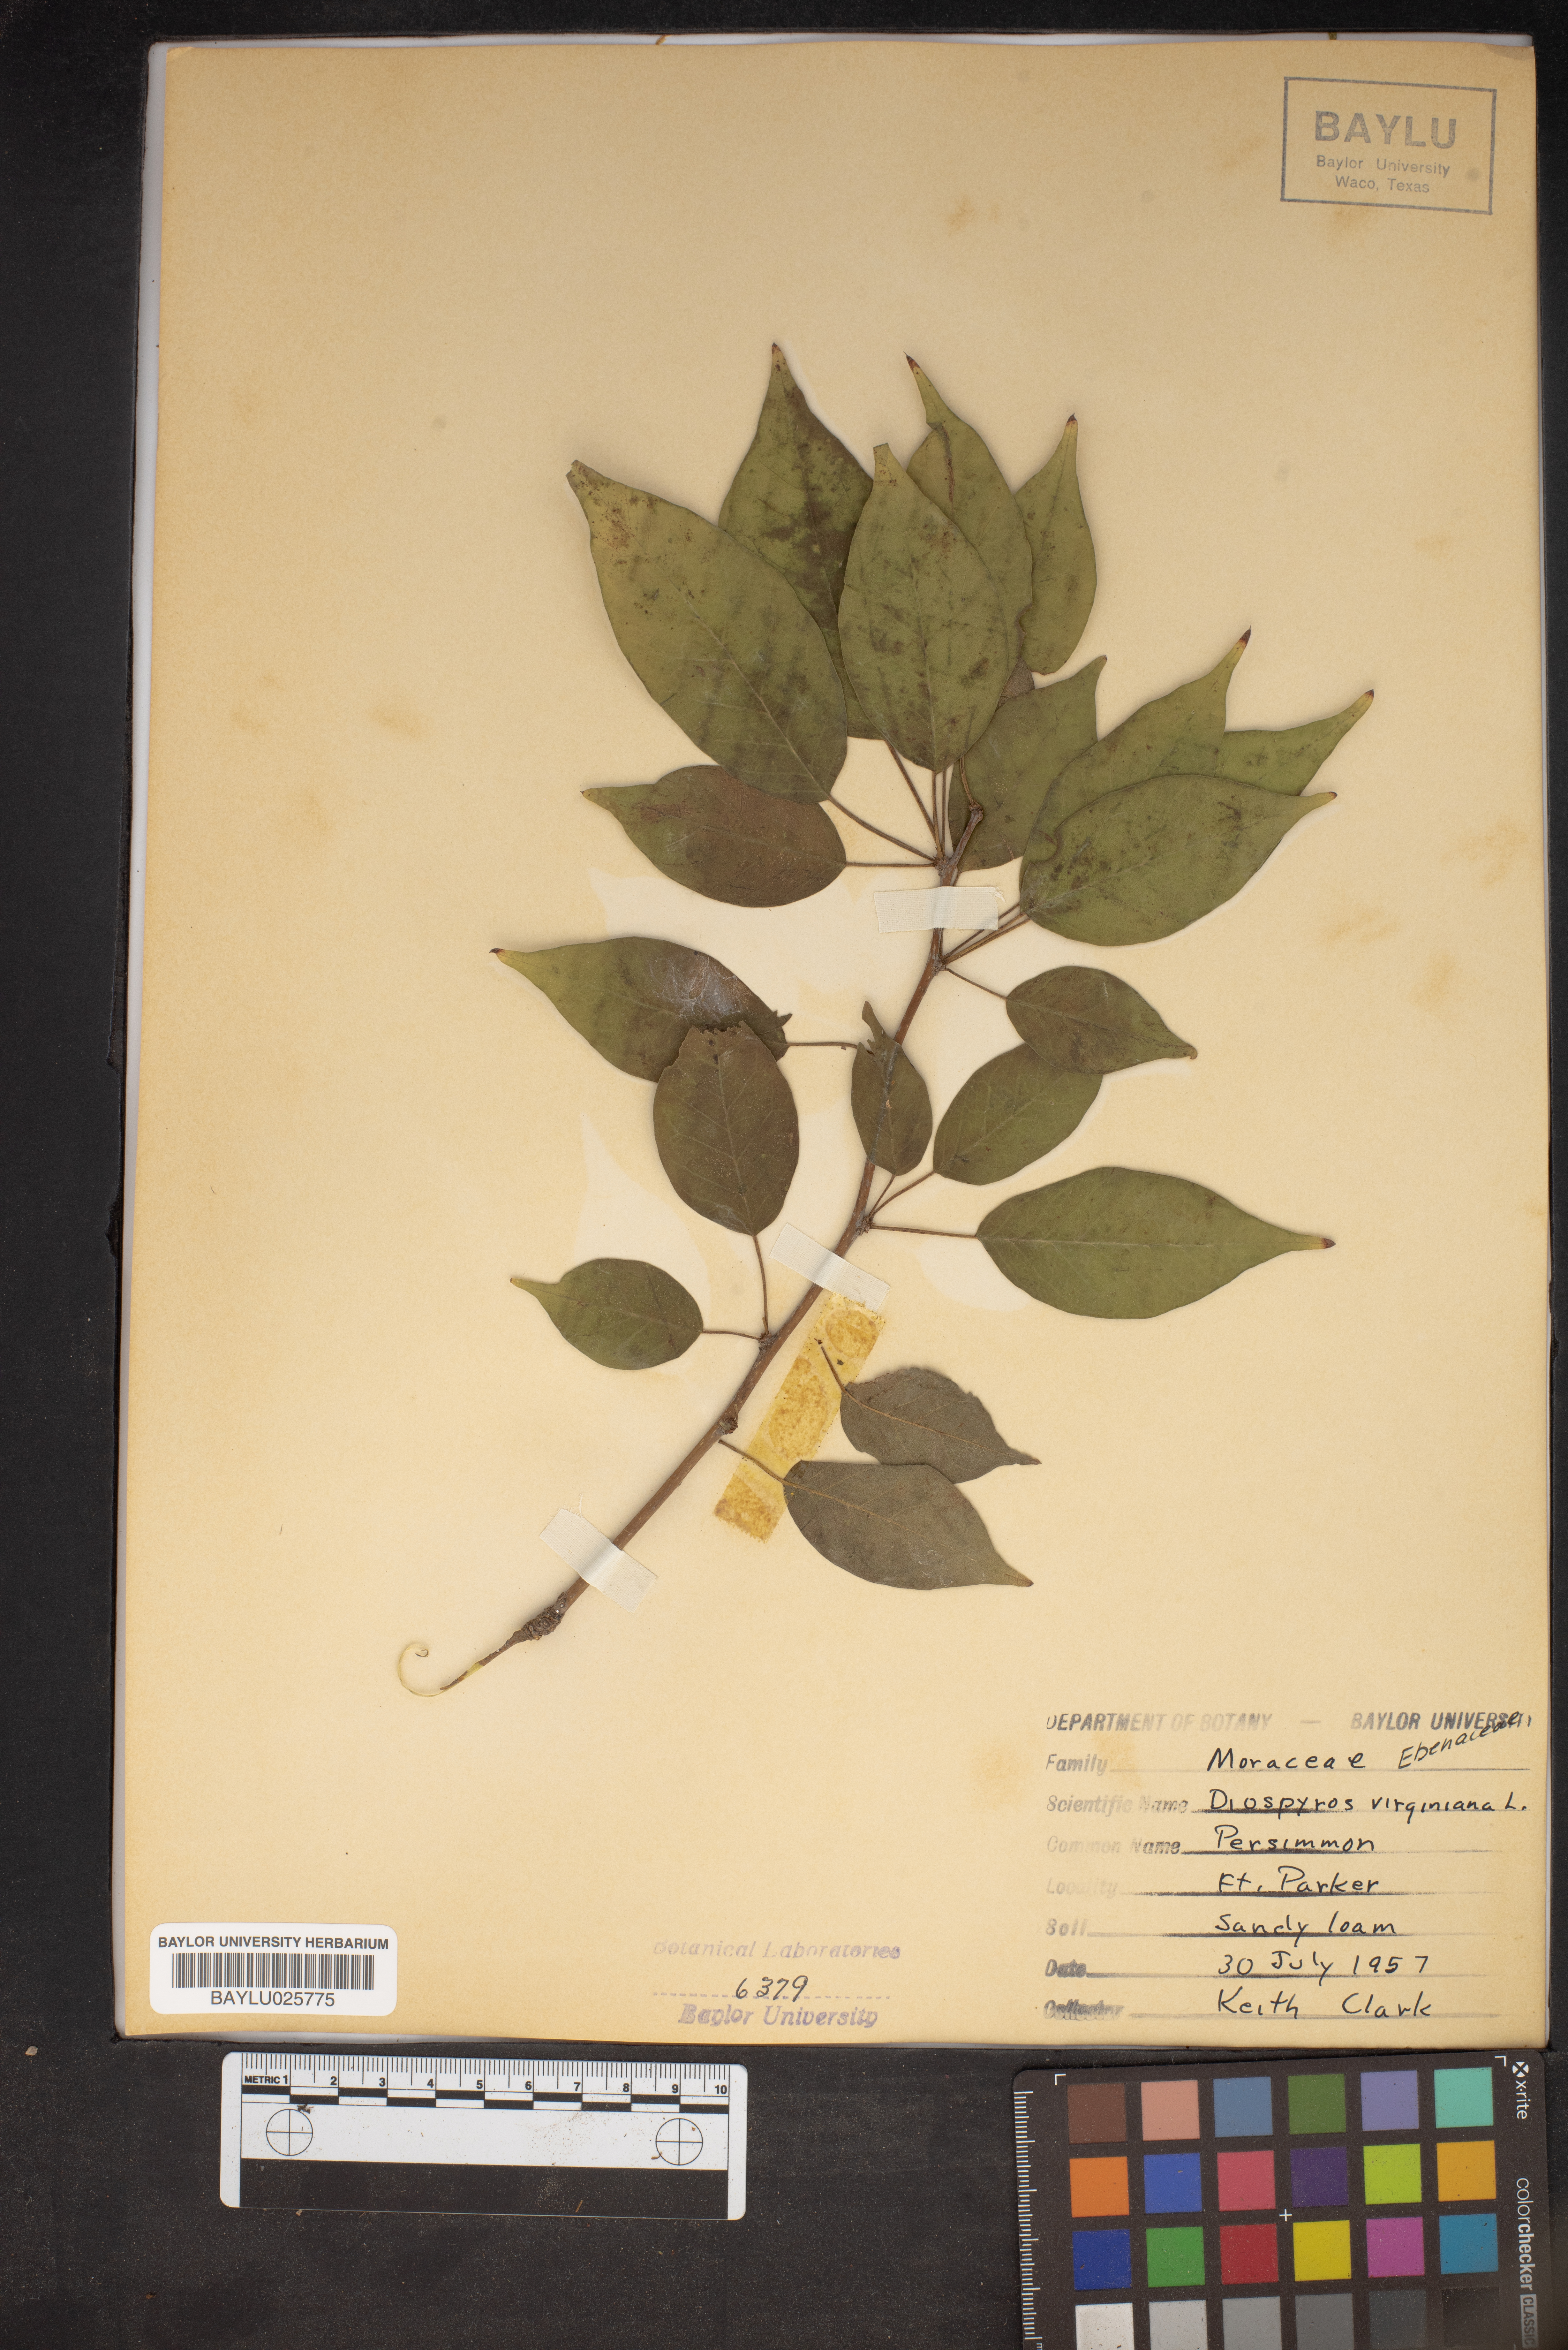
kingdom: Plantae
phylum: Tracheophyta
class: Magnoliopsida
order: Ericales
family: Ebenaceae
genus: Diospyros
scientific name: Diospyros virginiana
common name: Persimmon
